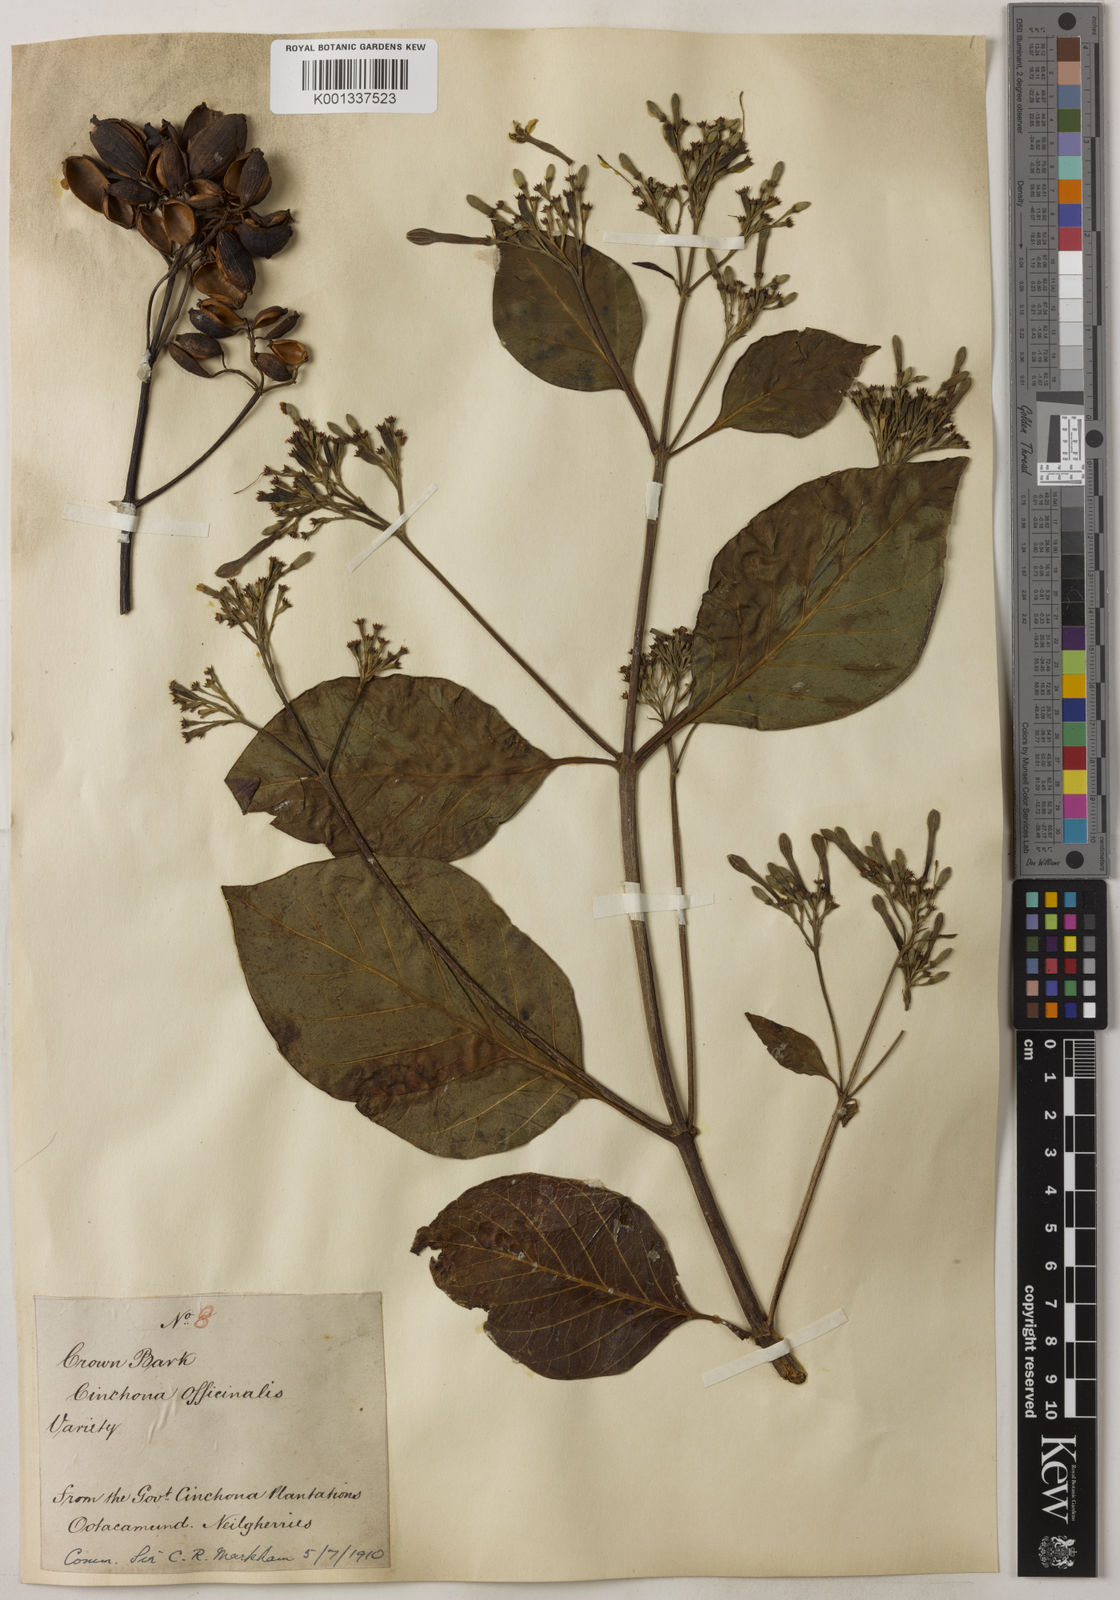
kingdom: Plantae
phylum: Tracheophyta
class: Magnoliopsida
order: Gentianales
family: Rubiaceae
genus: Cinchona
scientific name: Cinchona officinalis
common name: Lojabark
